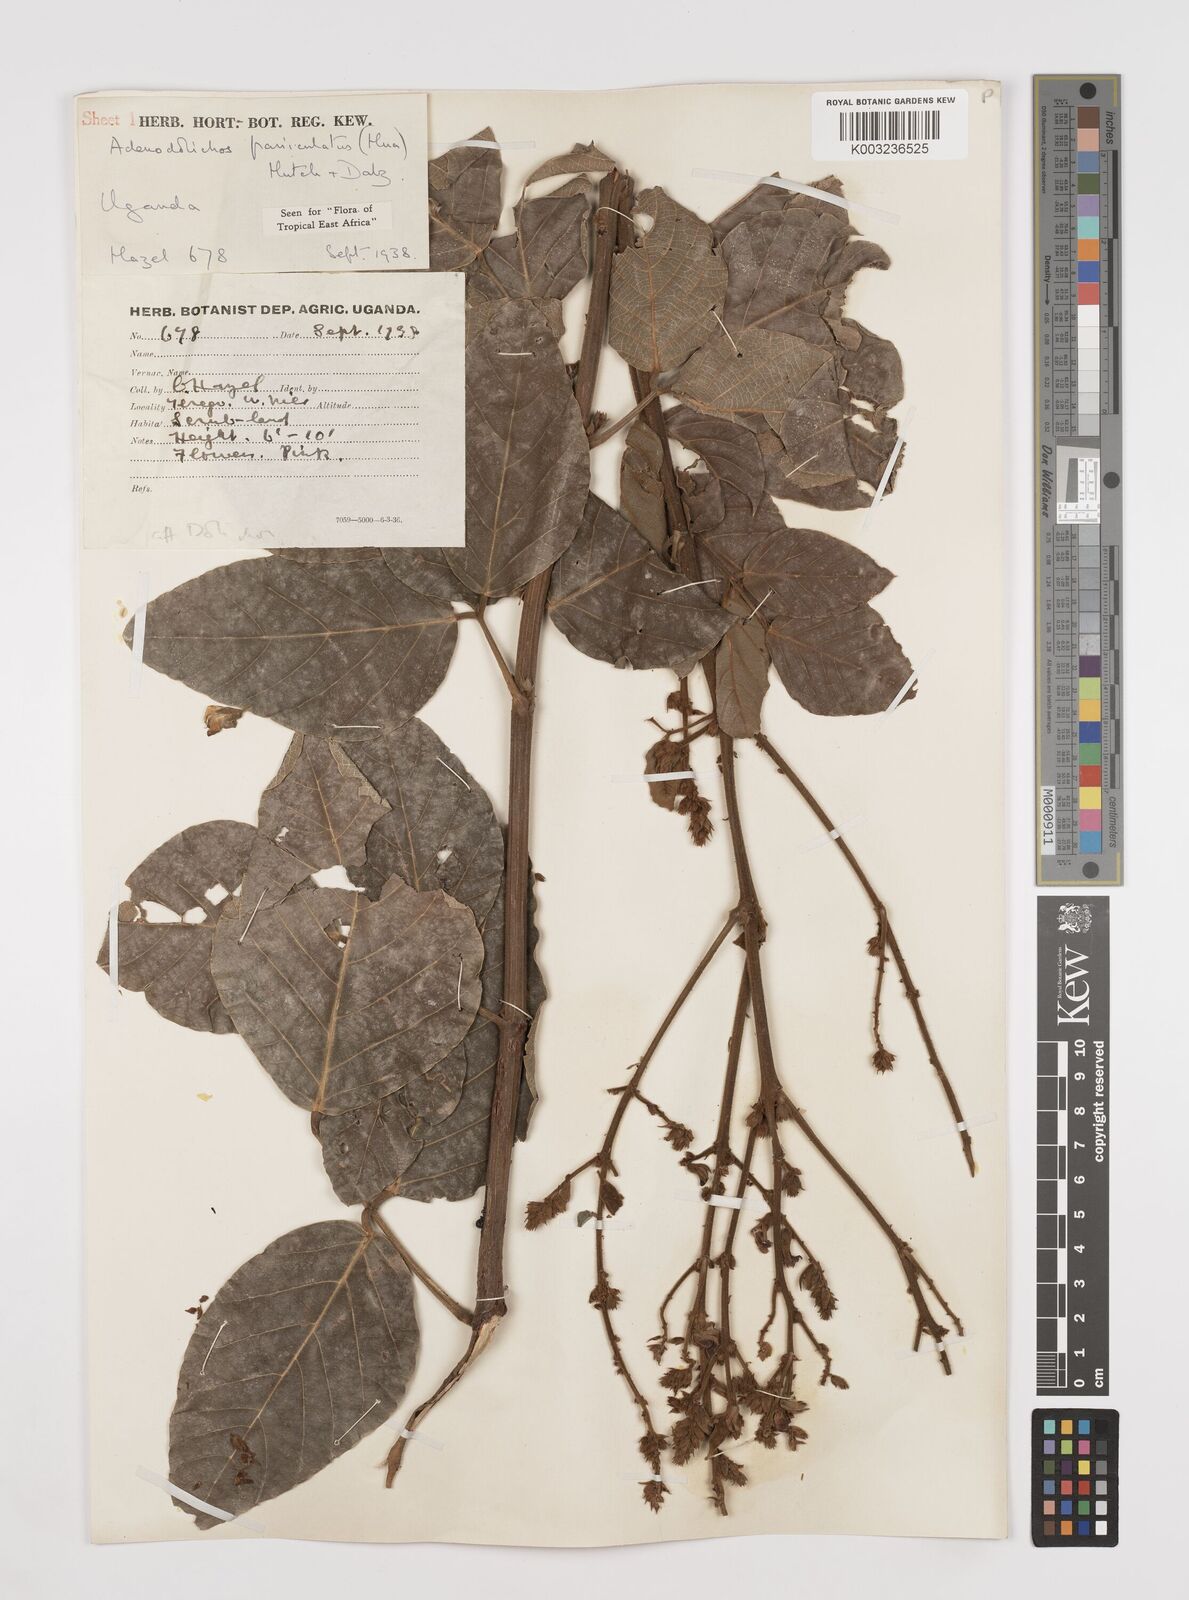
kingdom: Plantae
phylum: Tracheophyta
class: Magnoliopsida
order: Fabales
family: Fabaceae
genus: Adenodolichos
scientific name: Adenodolichos paniculatus
